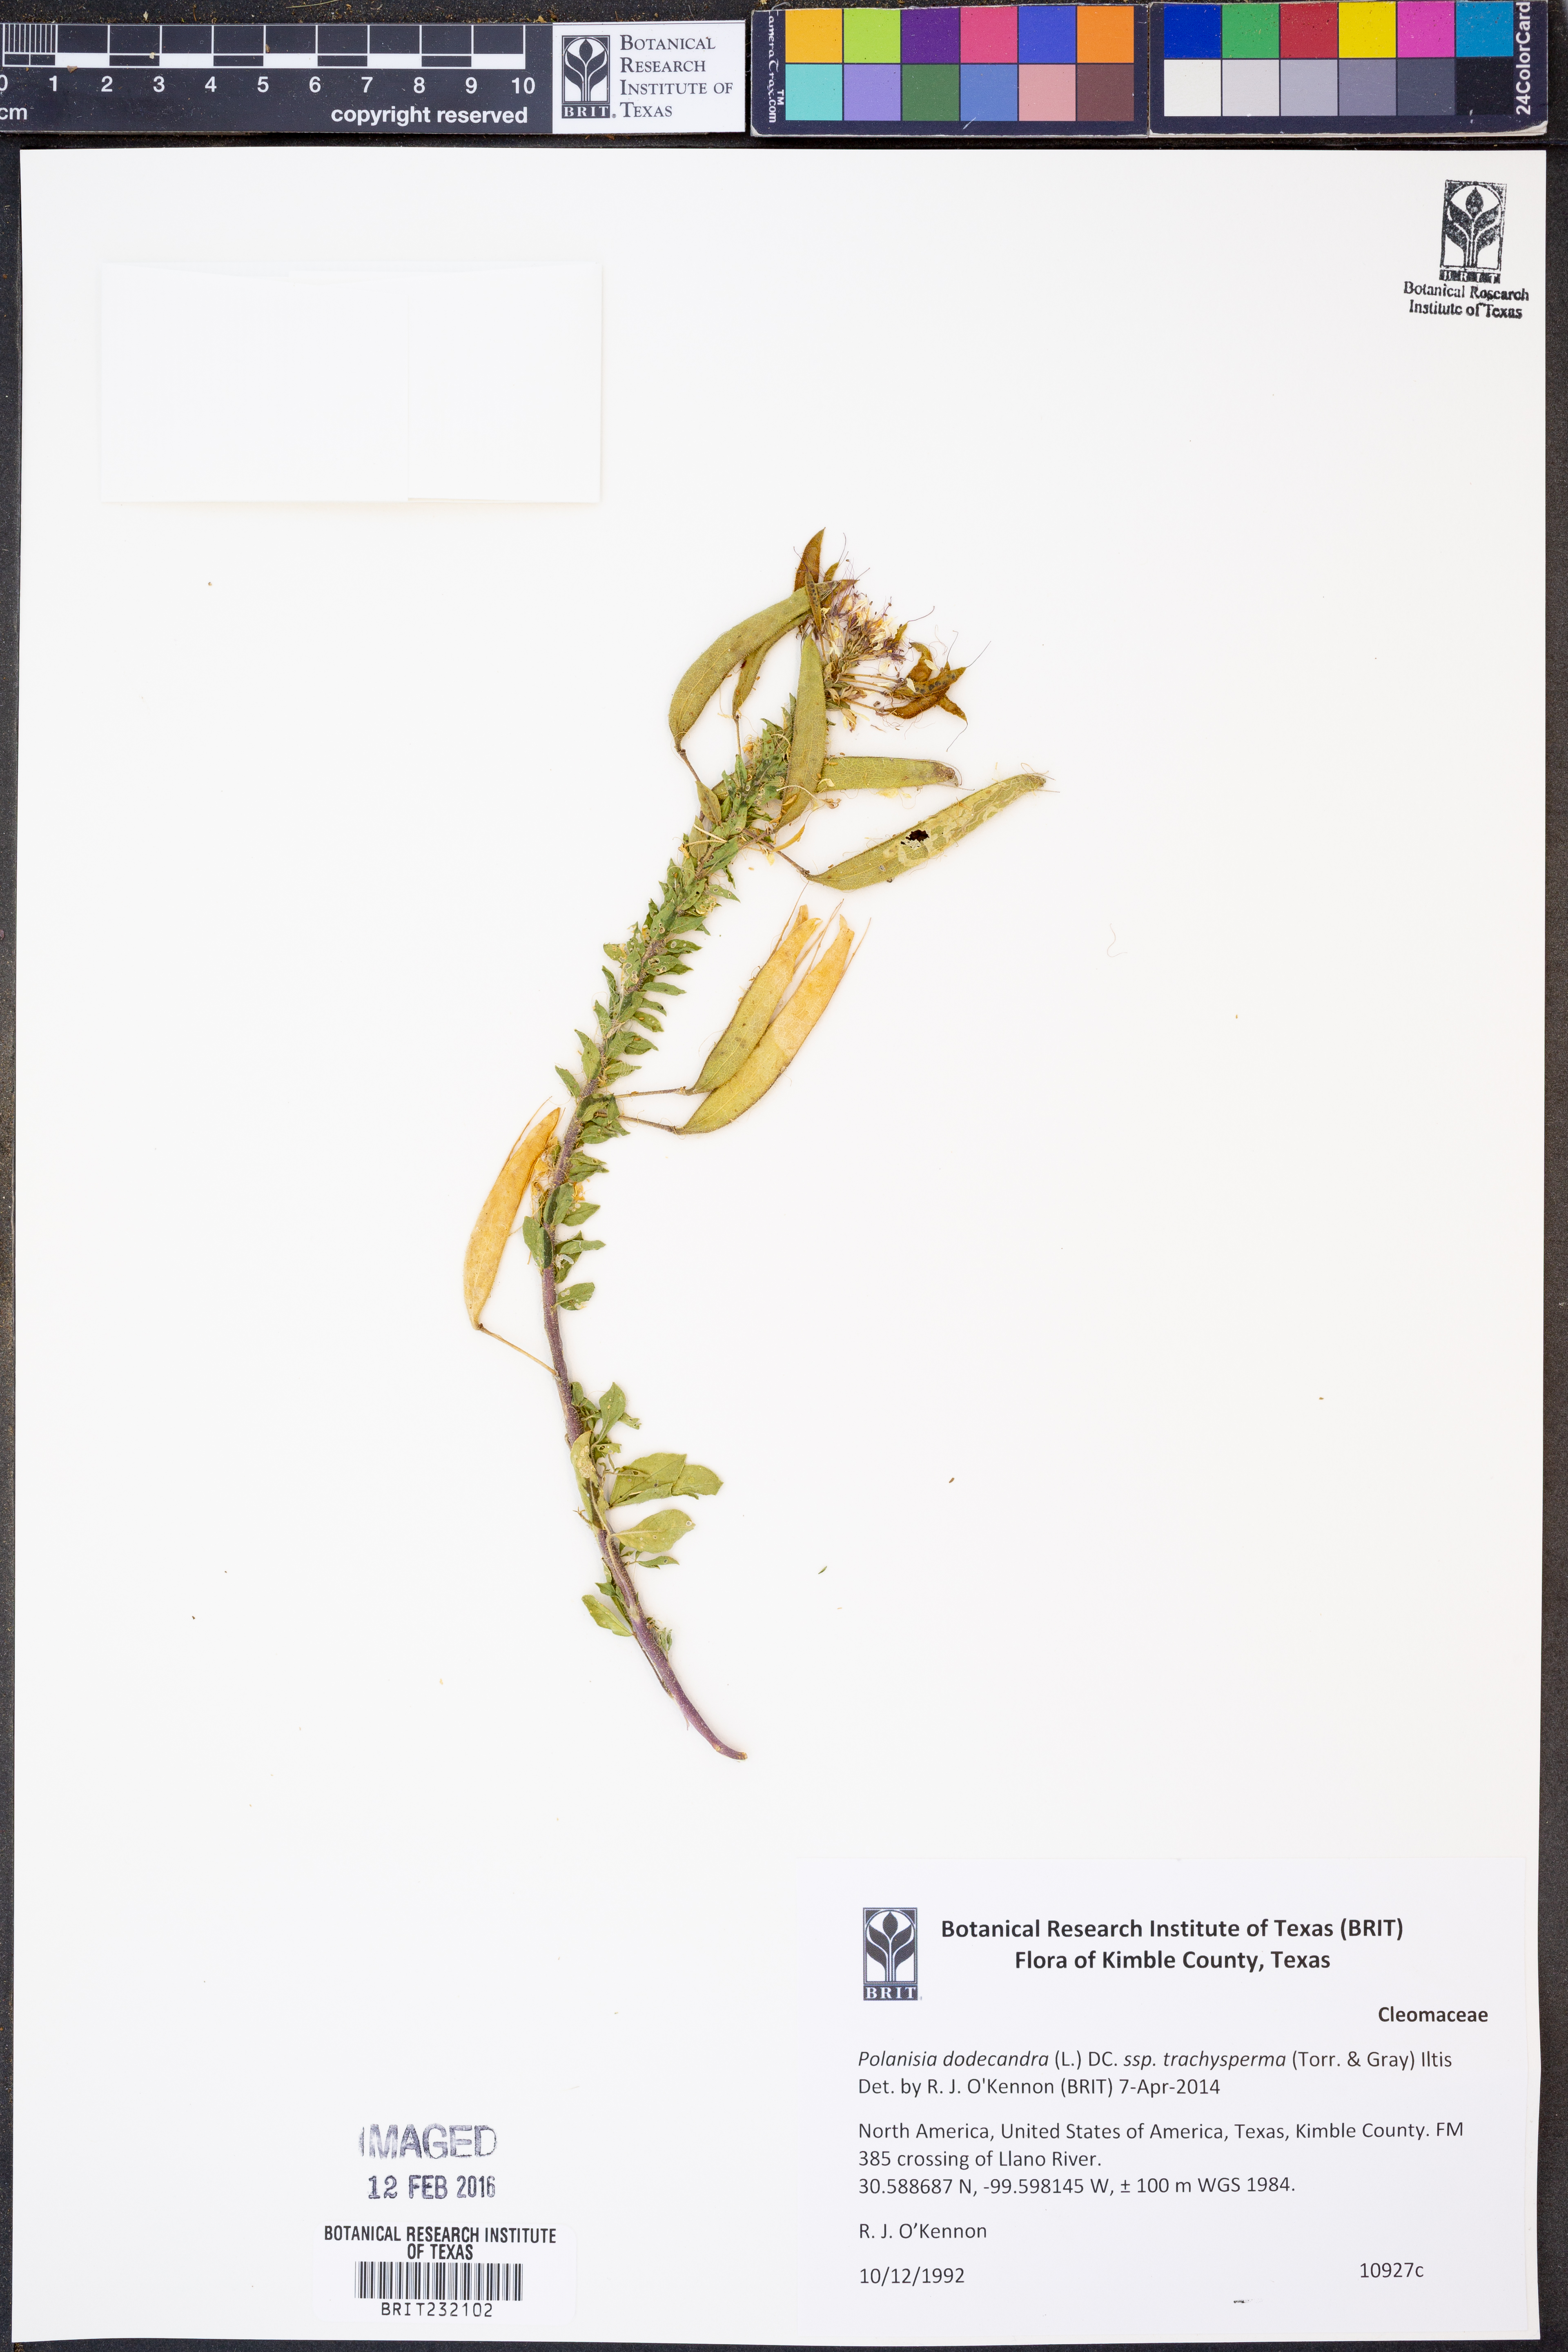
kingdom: Plantae
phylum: Tracheophyta
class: Magnoliopsida
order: Brassicales
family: Cleomaceae
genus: Polanisia
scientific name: Polanisia trachysperma
